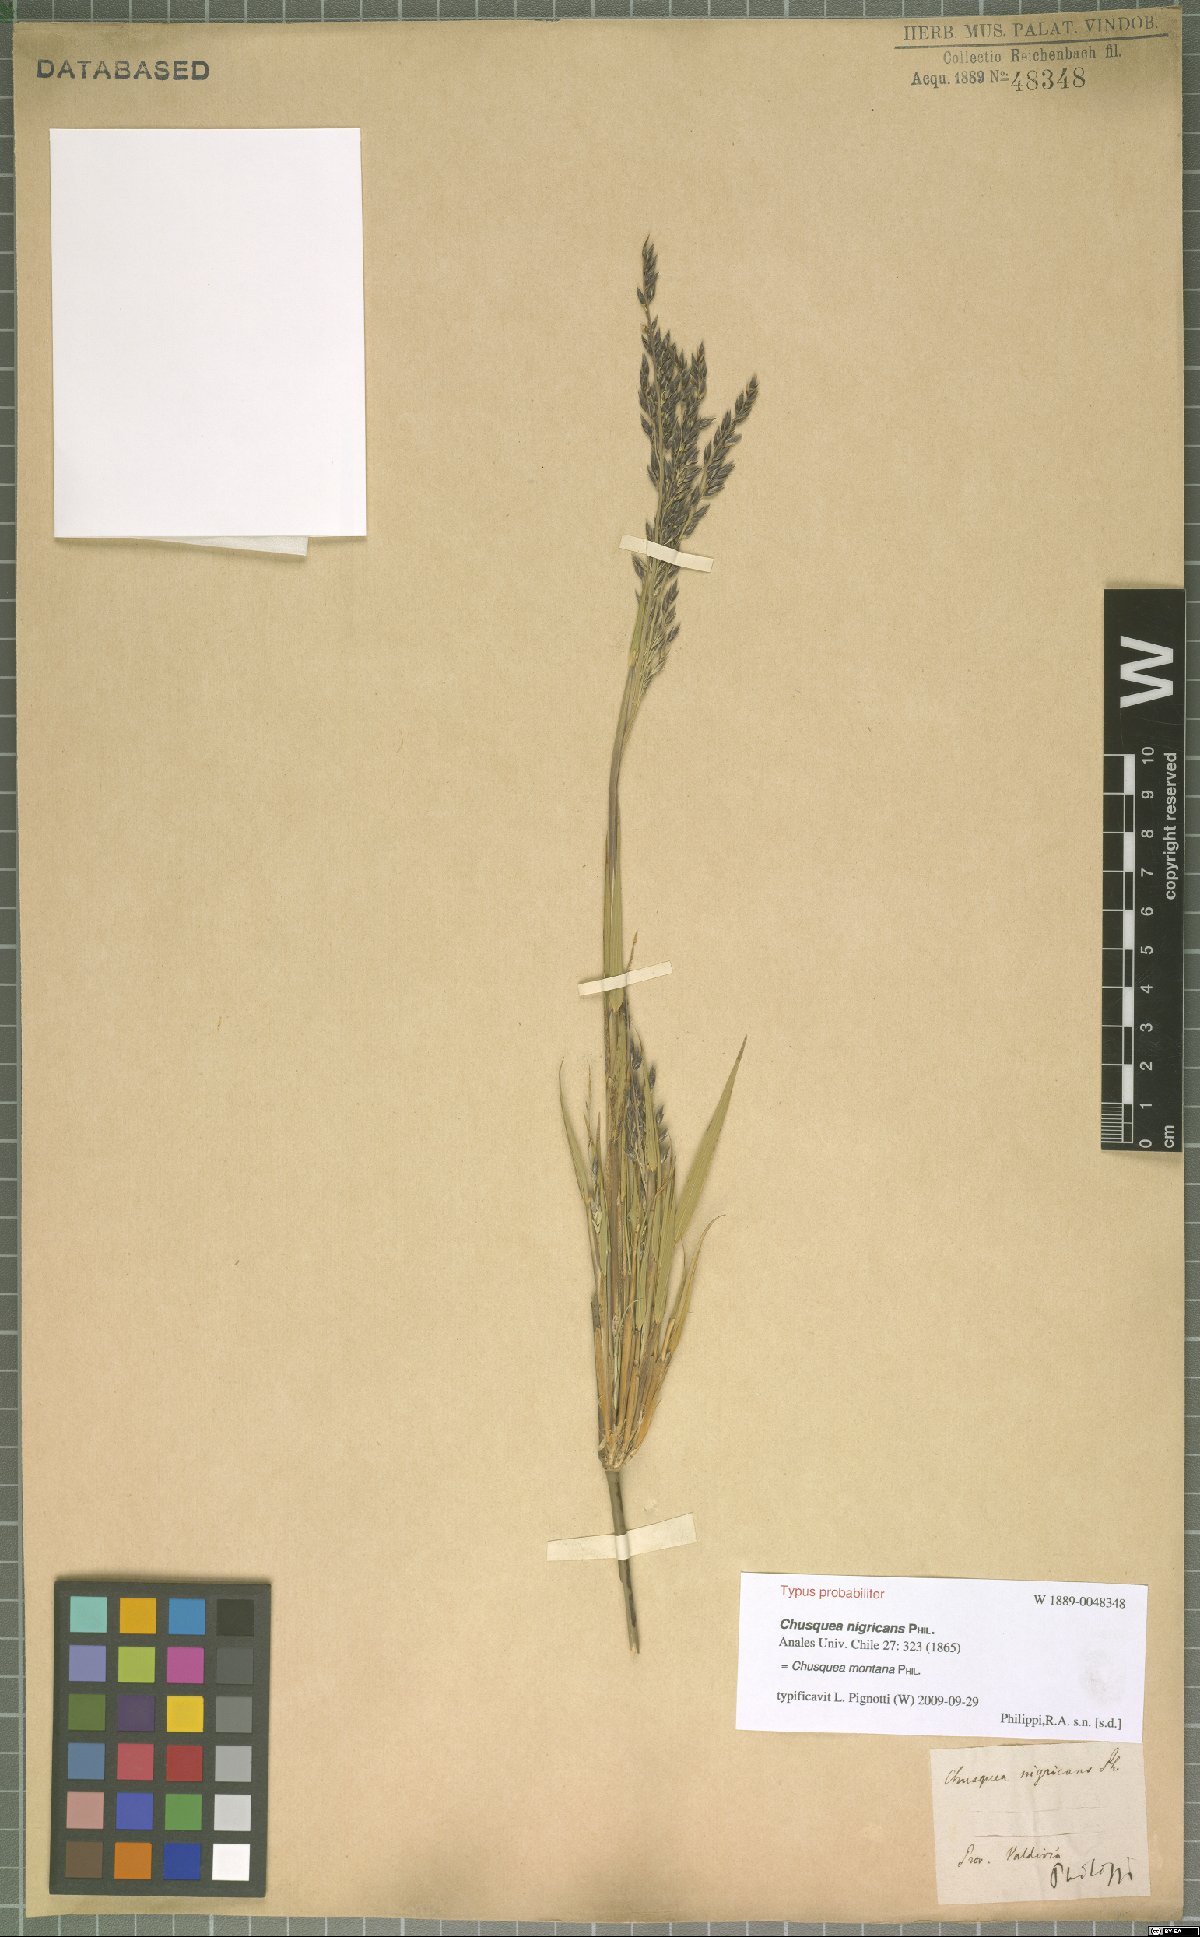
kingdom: Plantae
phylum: Tracheophyta
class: Liliopsida
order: Poales
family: Poaceae
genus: Chusquea
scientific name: Chusquea montana
